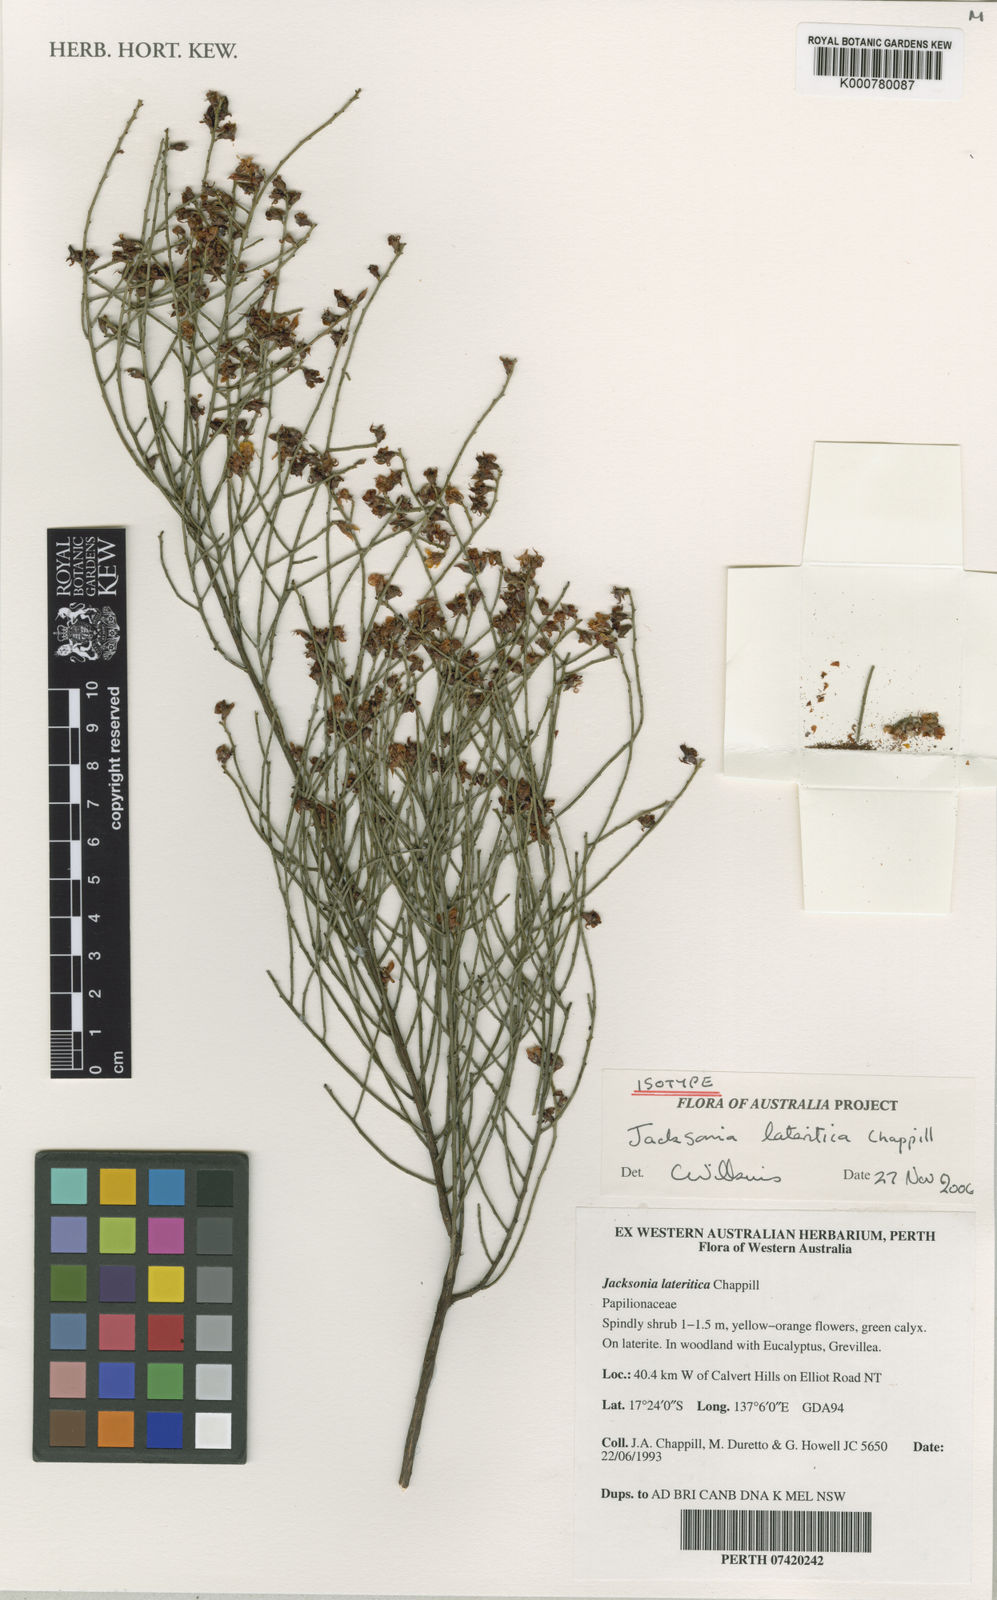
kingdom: Plantae
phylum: Tracheophyta
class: Magnoliopsida
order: Fabales
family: Fabaceae
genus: Jacksonia
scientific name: Jacksonia lateritica
